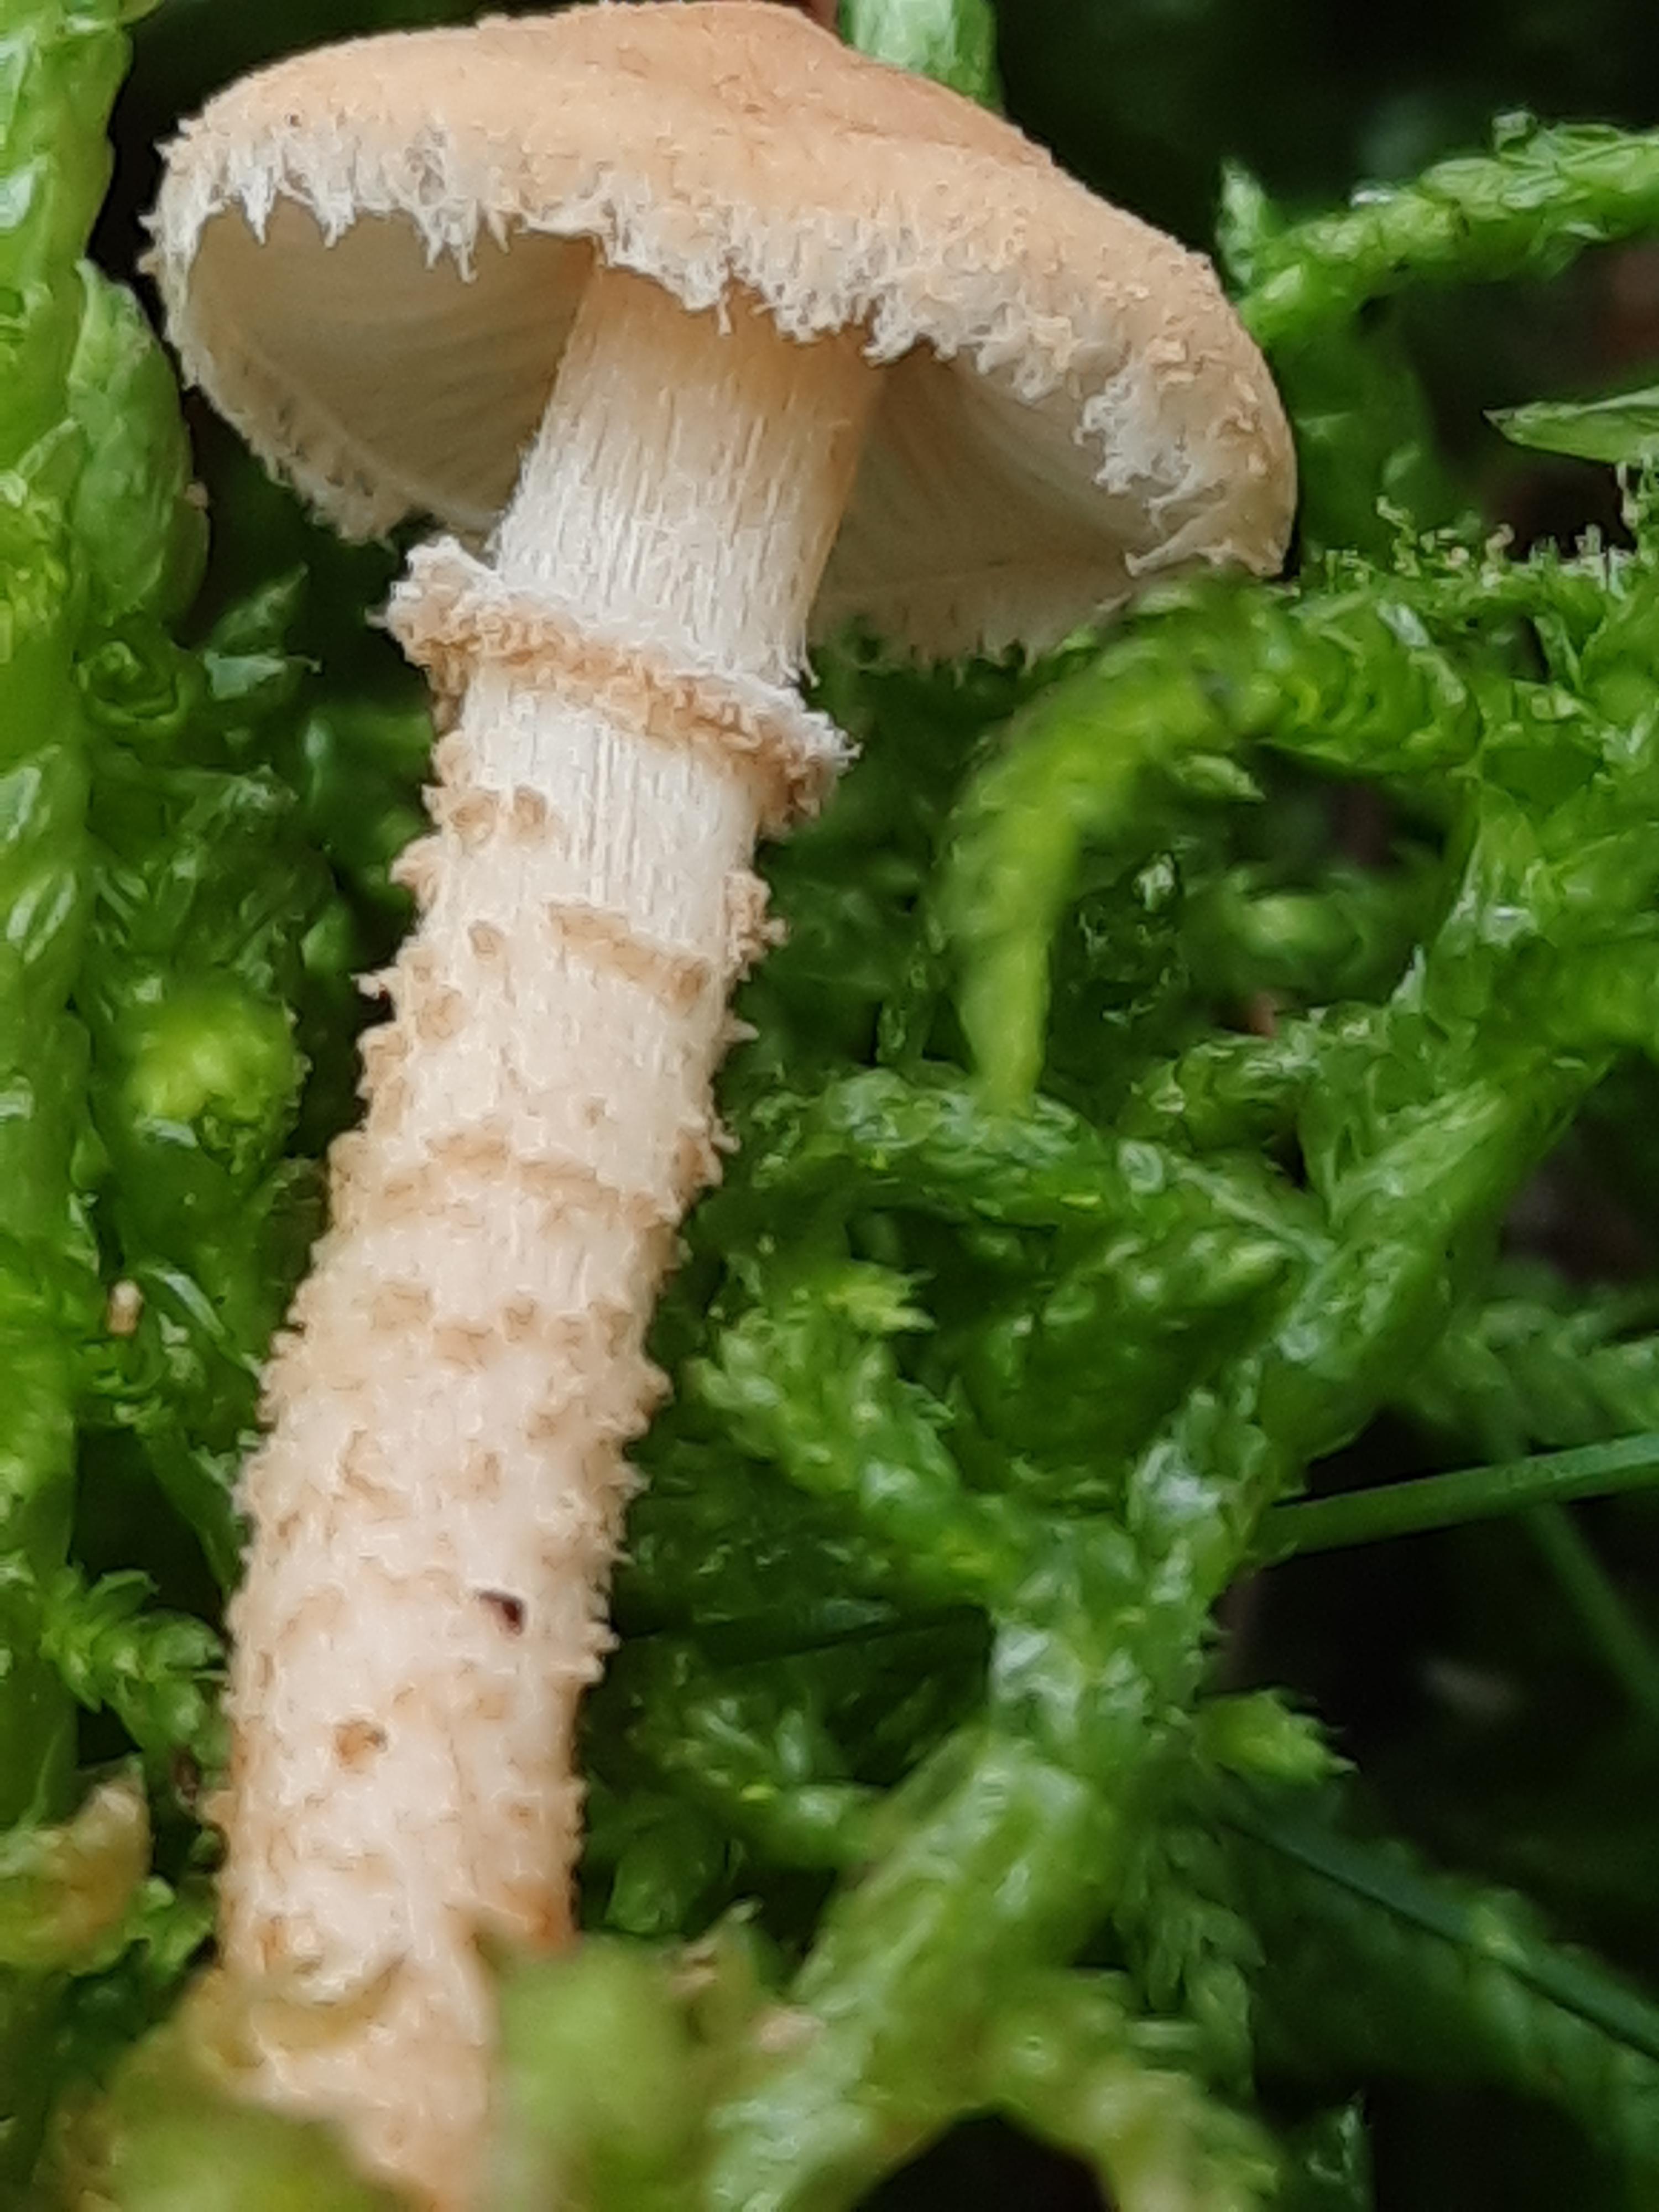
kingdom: Fungi
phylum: Basidiomycota
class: Agaricomycetes
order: Agaricales
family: Tricholomataceae
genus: Cystoderma
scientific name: Cystoderma amianthinum
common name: okkergul grynhat
